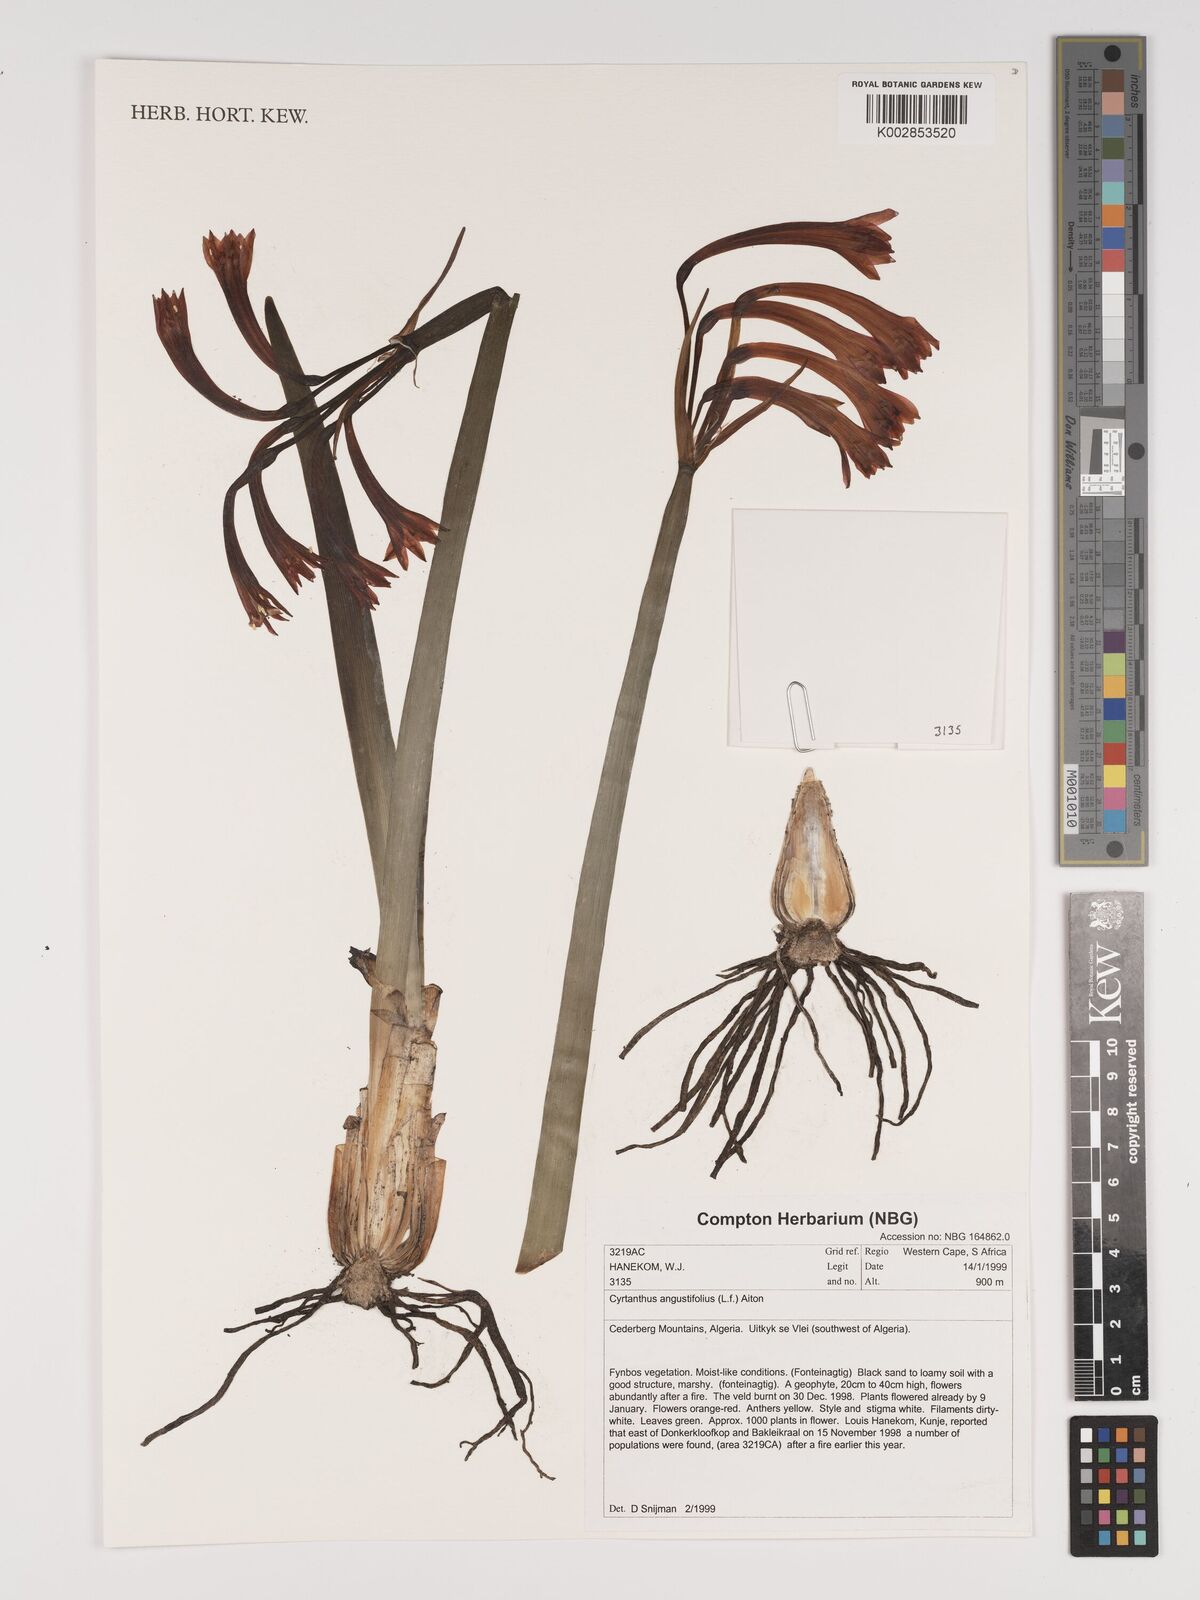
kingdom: Plantae
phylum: Tracheophyta
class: Liliopsida
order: Asparagales
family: Amaryllidaceae
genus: Cyrtanthus
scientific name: Cyrtanthus angustifolius
